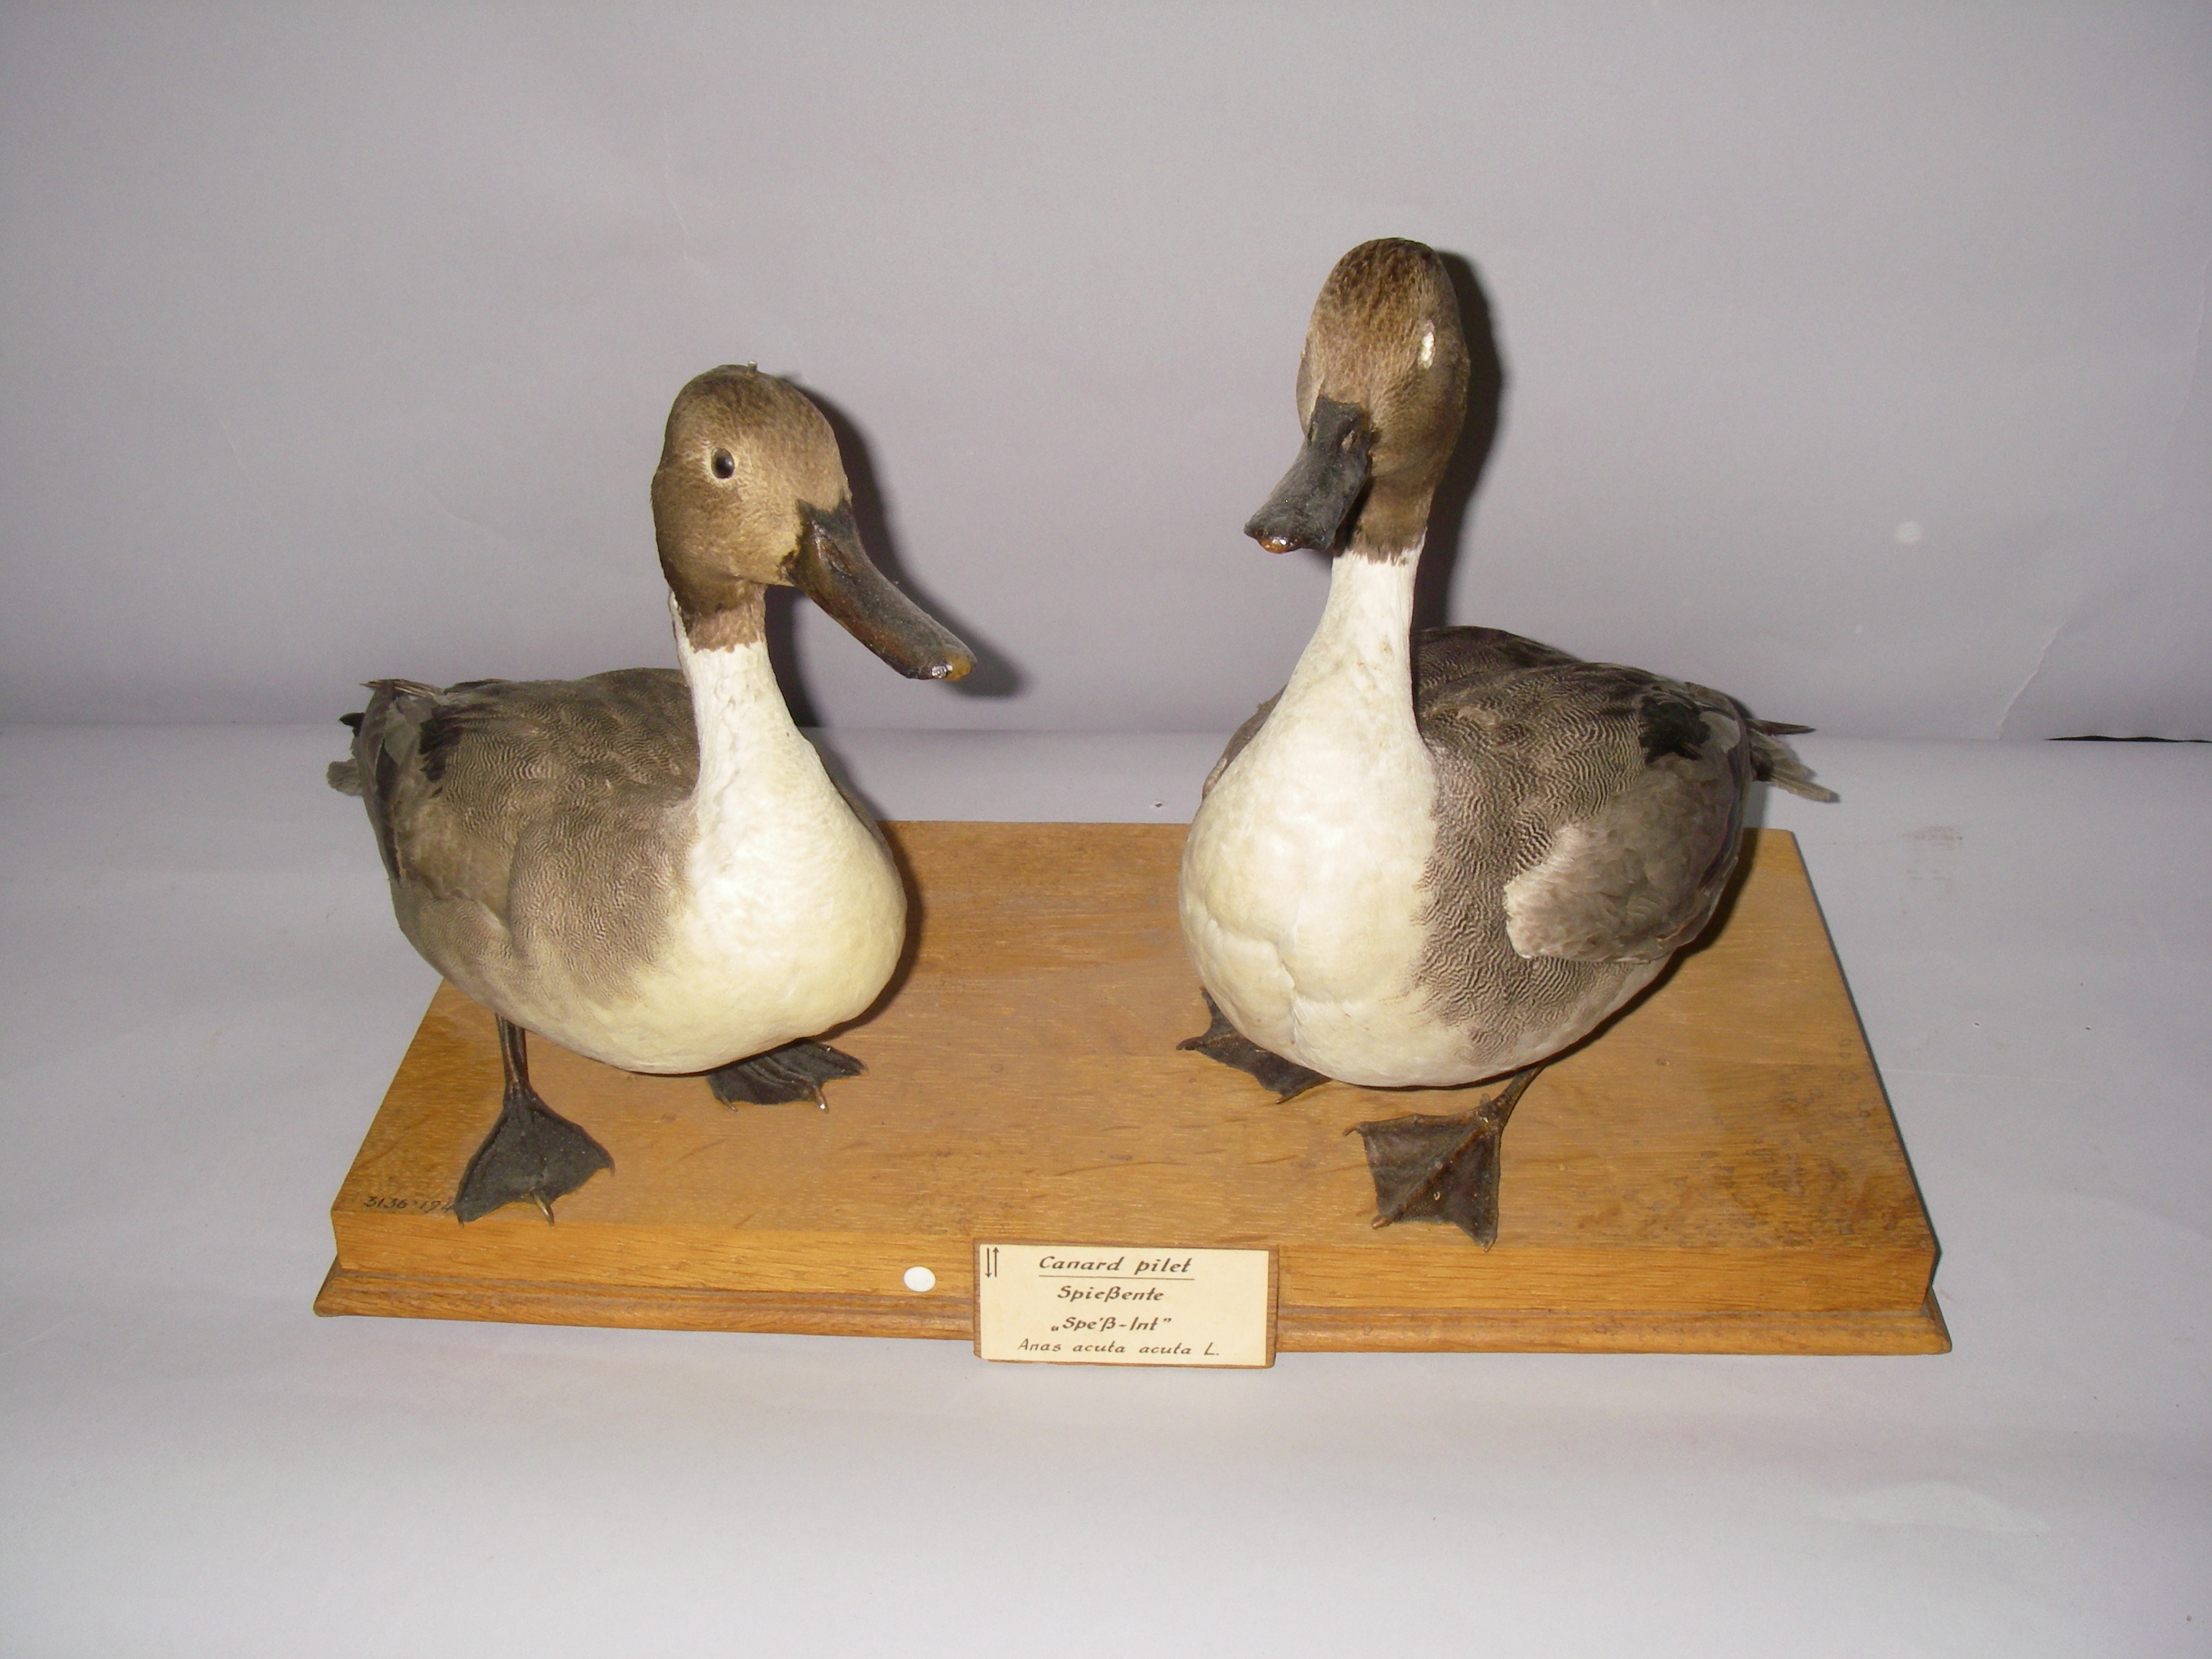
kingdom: Animalia
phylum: Chordata
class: Aves
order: Anseriformes
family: Anatidae
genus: Anas
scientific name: Anas acuta
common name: Northern pintail
